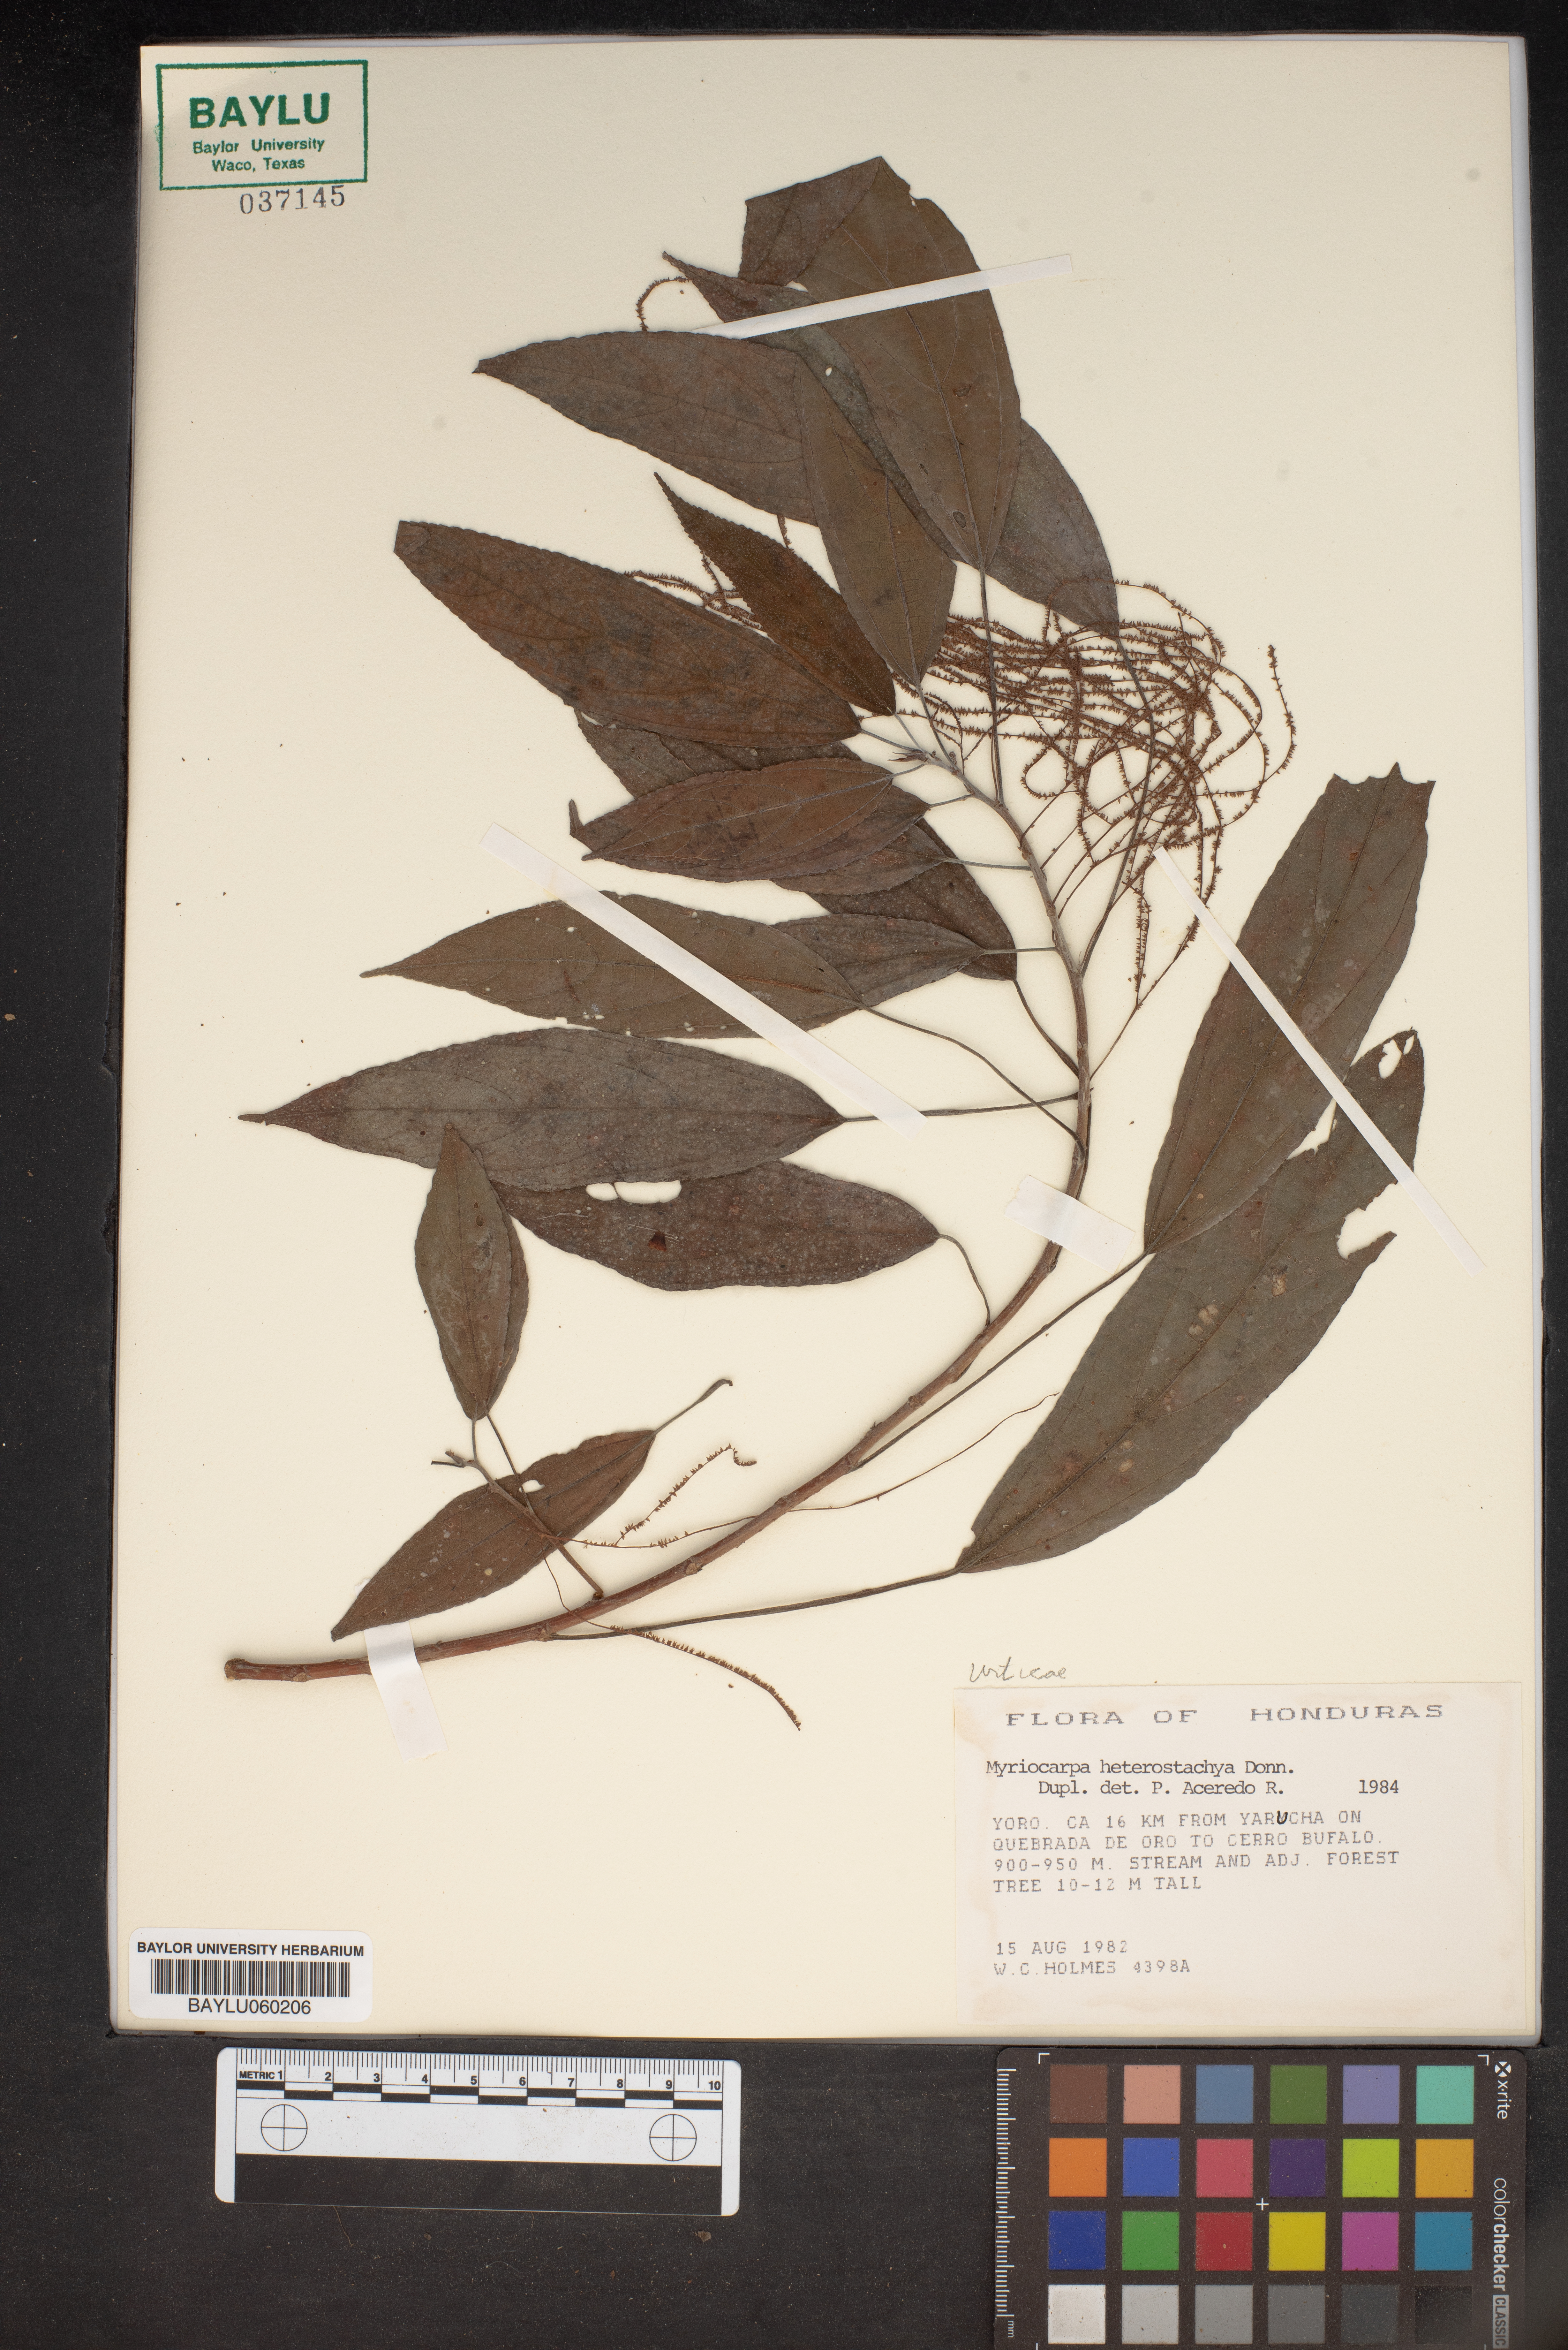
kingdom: Plantae
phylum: Tracheophyta
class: Magnoliopsida
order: Rosales
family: Urticaceae
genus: Myriocarpa
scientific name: Myriocarpa heterospicata
